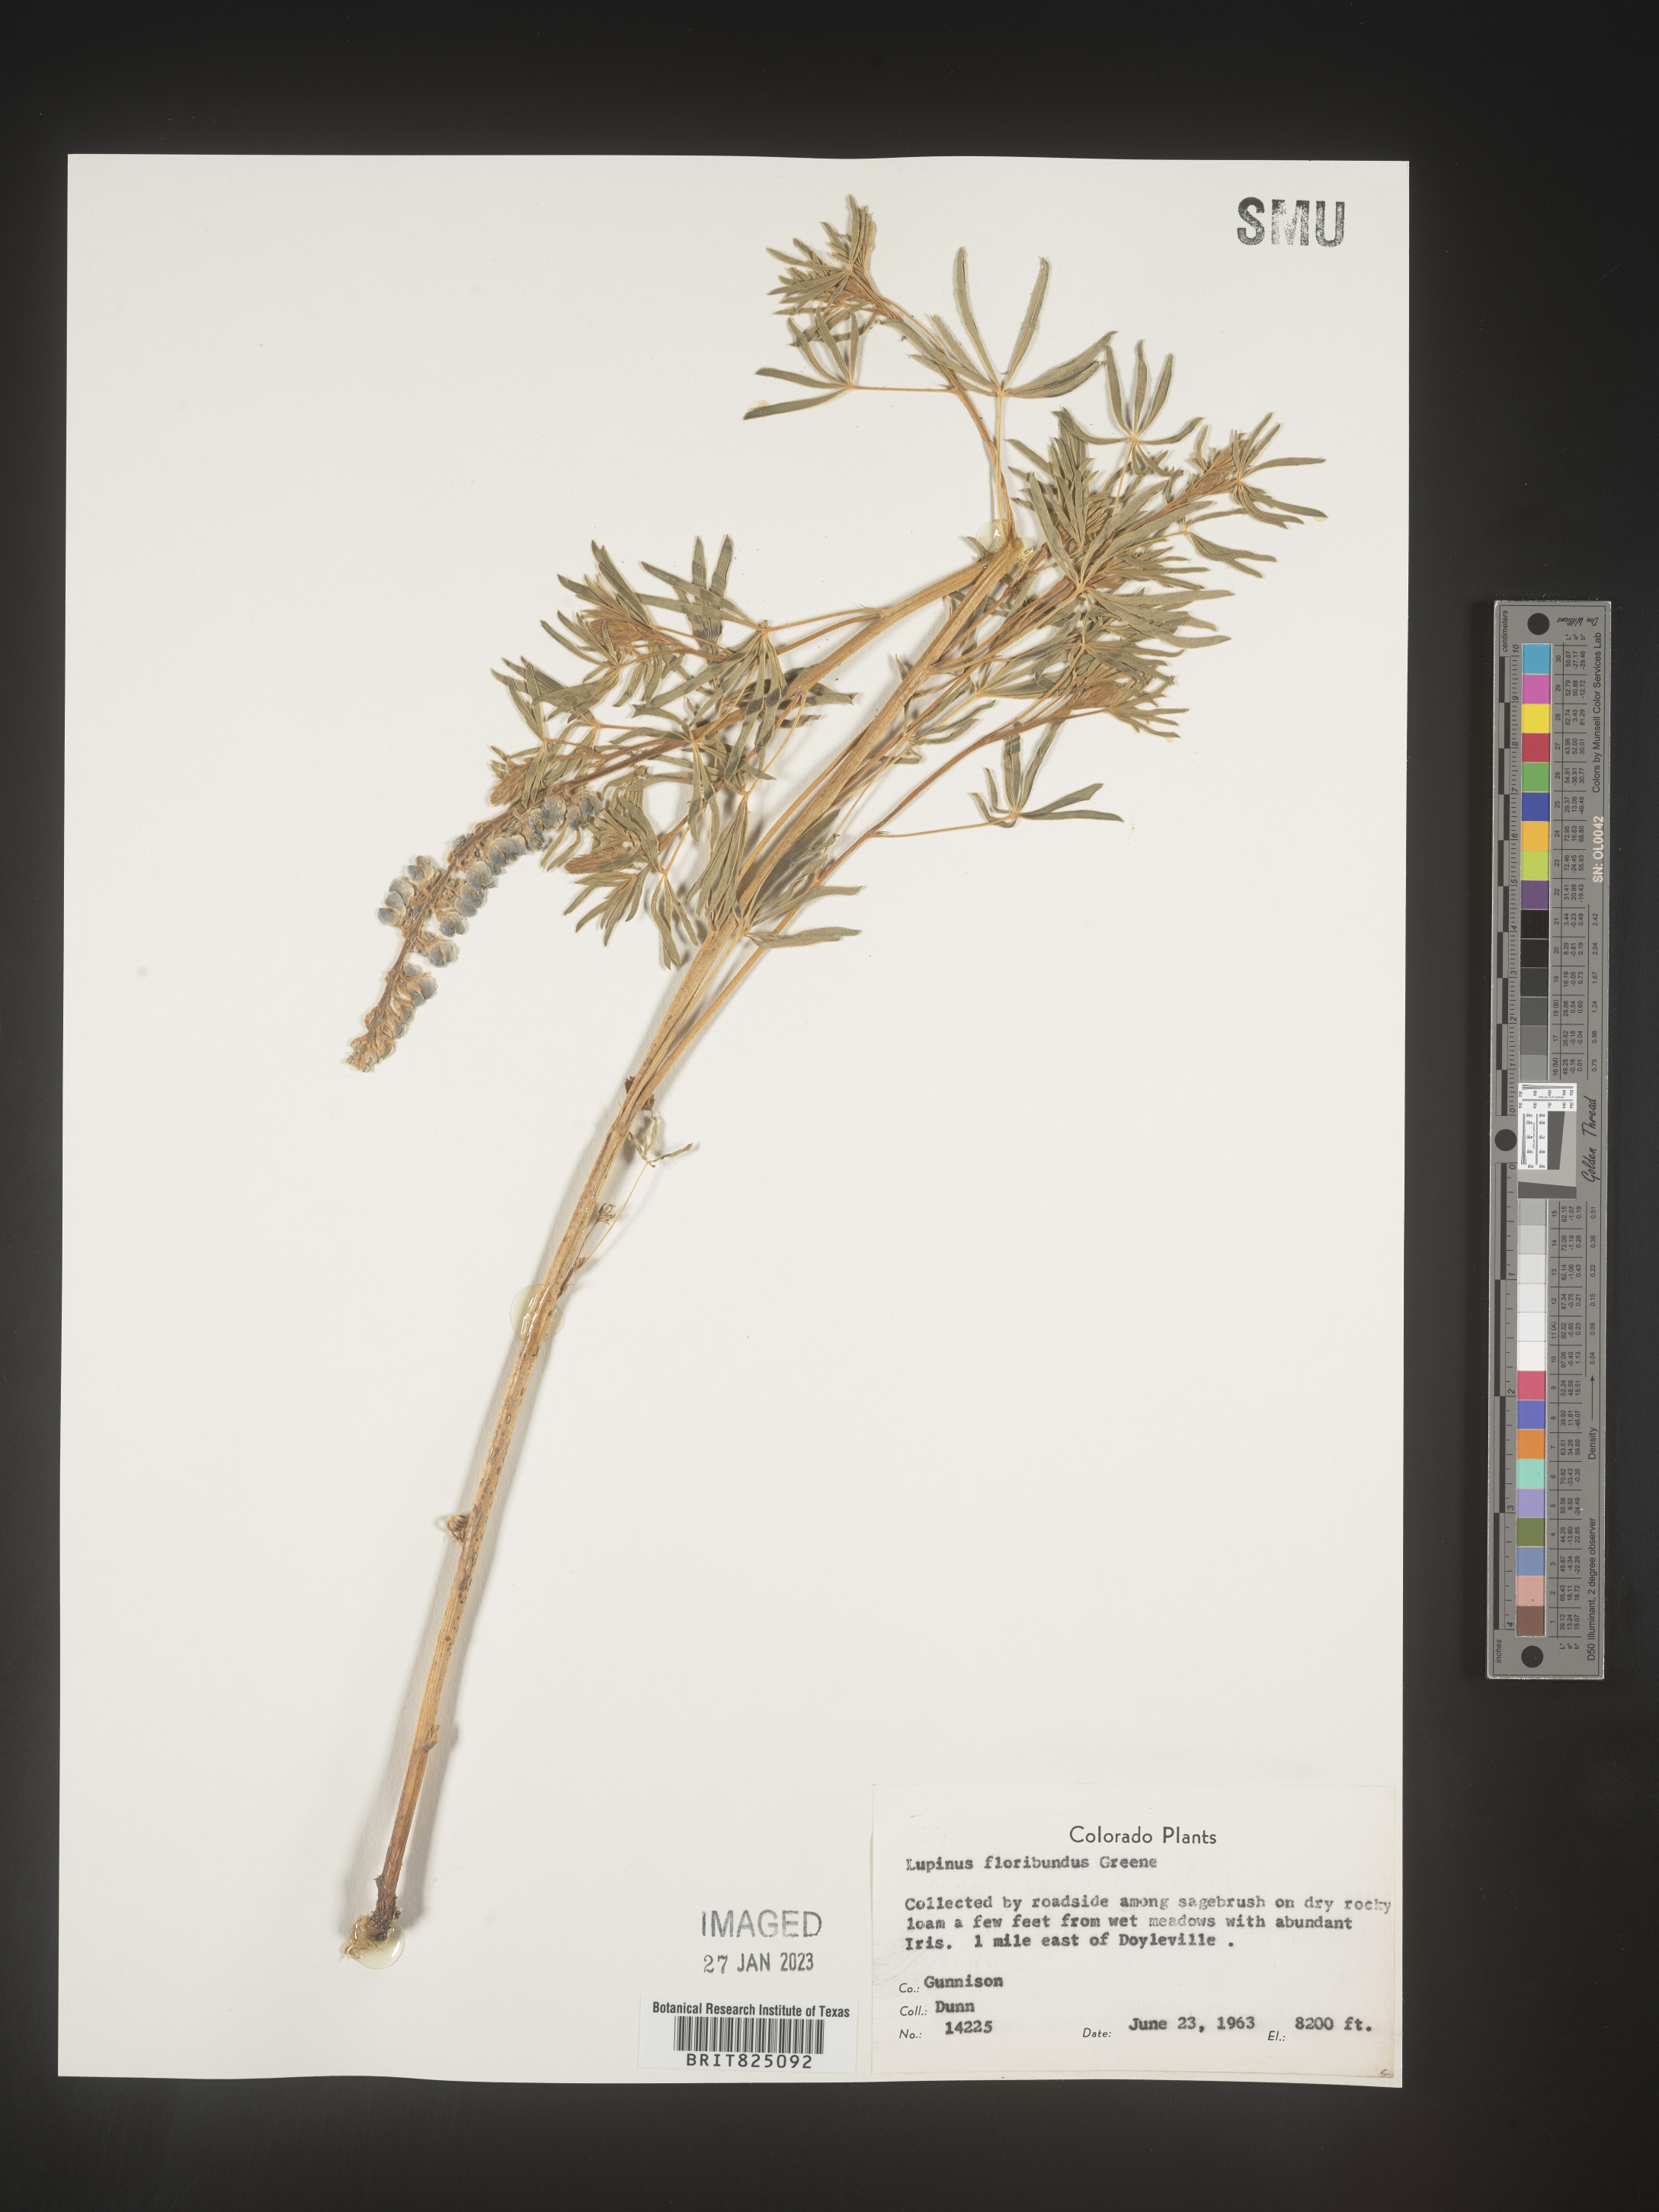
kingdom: Plantae
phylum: Tracheophyta
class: Magnoliopsida
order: Fabales
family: Fabaceae
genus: Lupinus
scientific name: Lupinus
